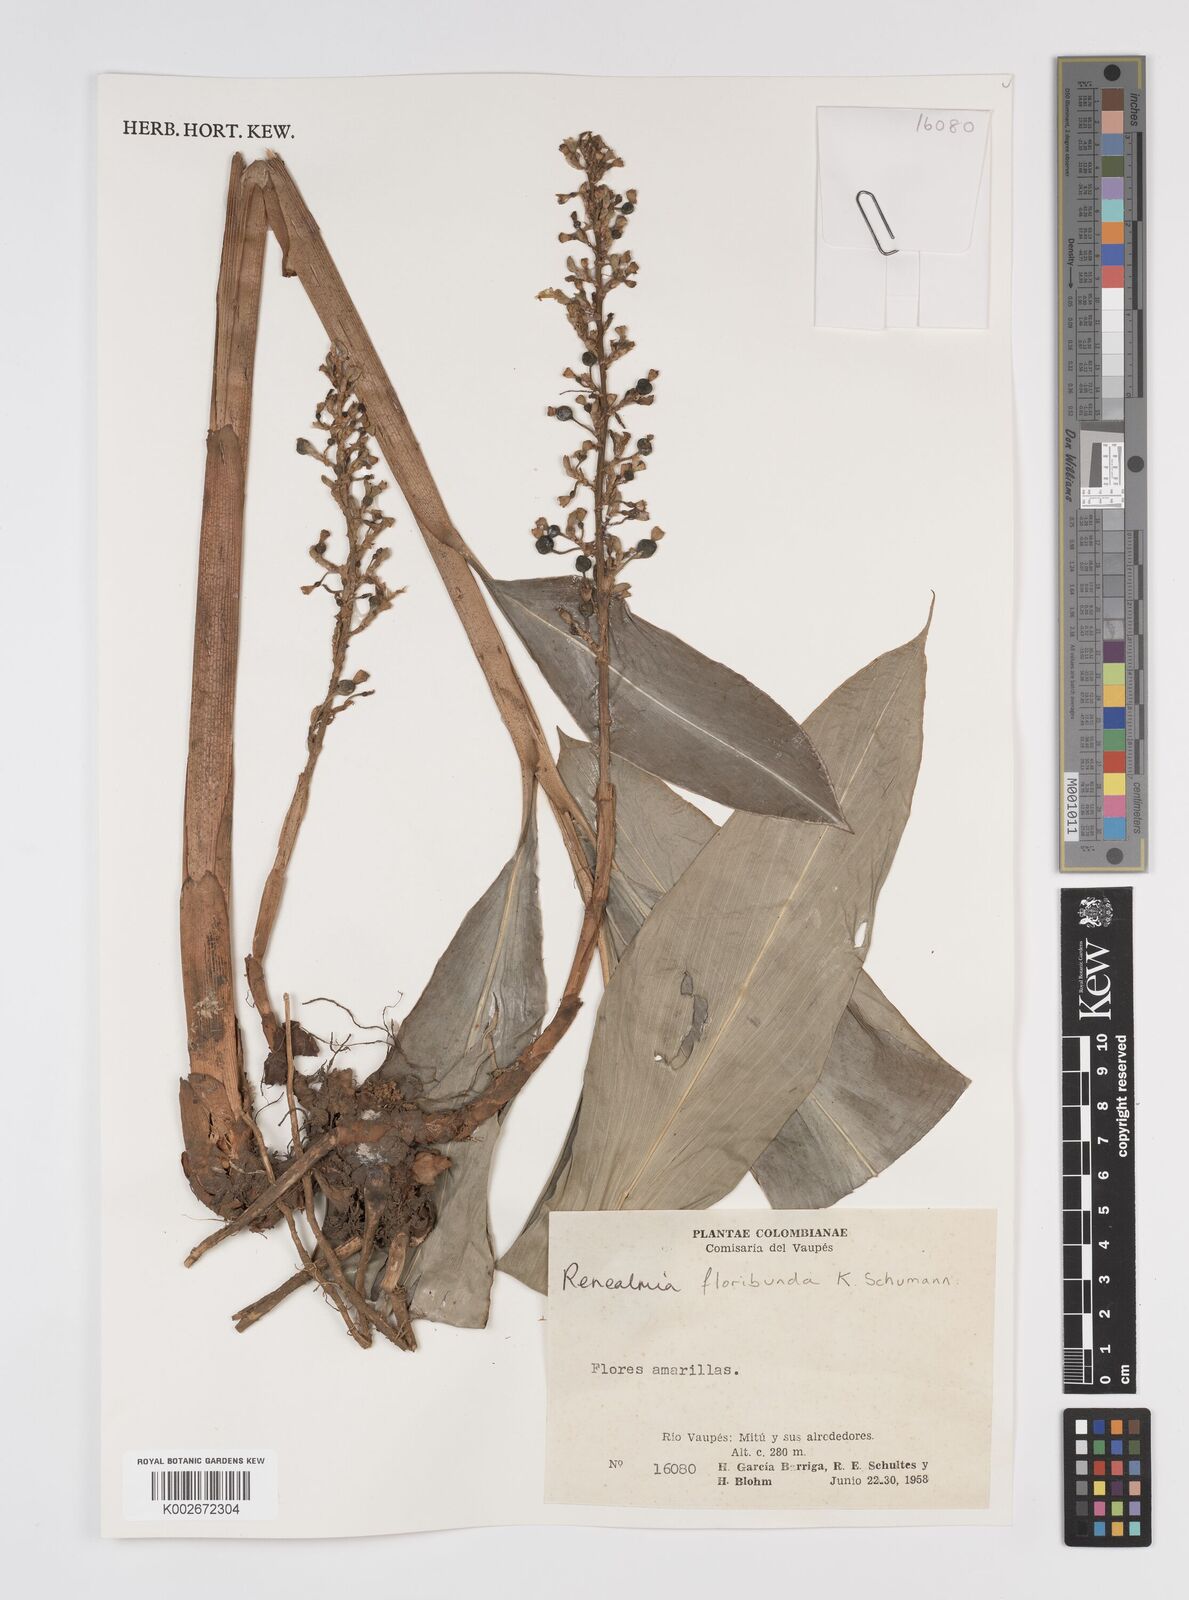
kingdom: Plantae
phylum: Tracheophyta
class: Liliopsida
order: Zingiberales
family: Zingiberaceae
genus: Renealmia
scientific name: Renealmia floribunda
